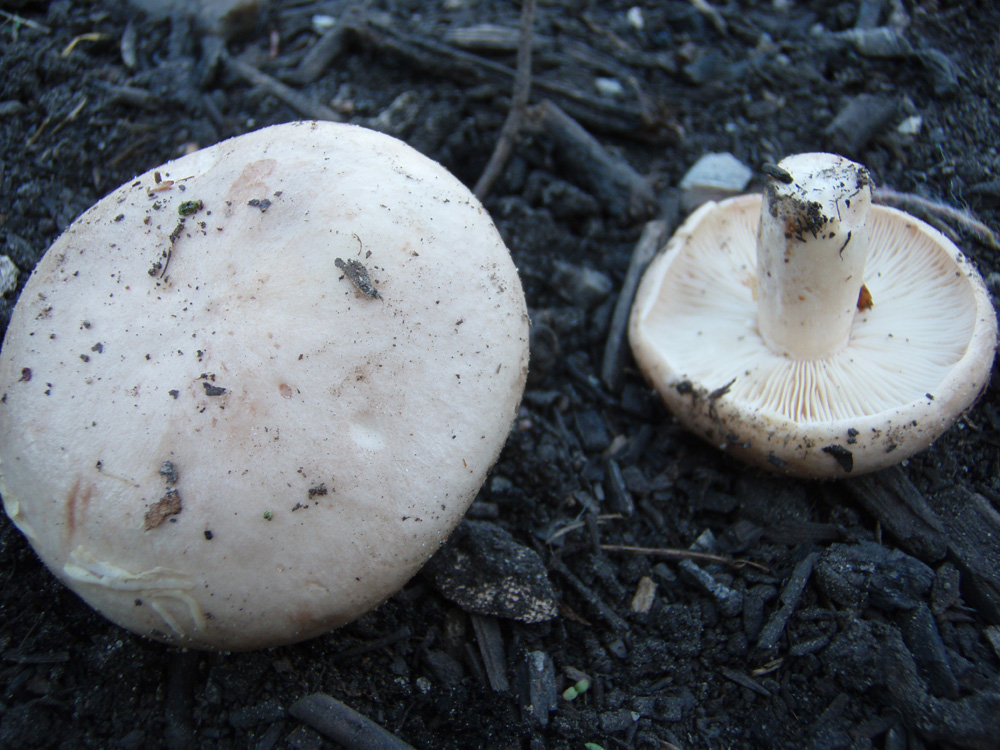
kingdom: Fungi
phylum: Basidiomycota
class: Agaricomycetes
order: Russulales
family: Russulaceae
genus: Lactarius
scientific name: Lactarius pallidus
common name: bleg mælkehat
